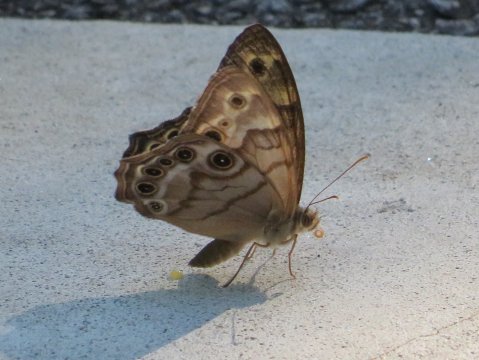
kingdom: Animalia
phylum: Arthropoda
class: Insecta
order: Lepidoptera
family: Nymphalidae
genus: Enodia
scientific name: Enodia portlandia
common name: Southern Pearly Eye
